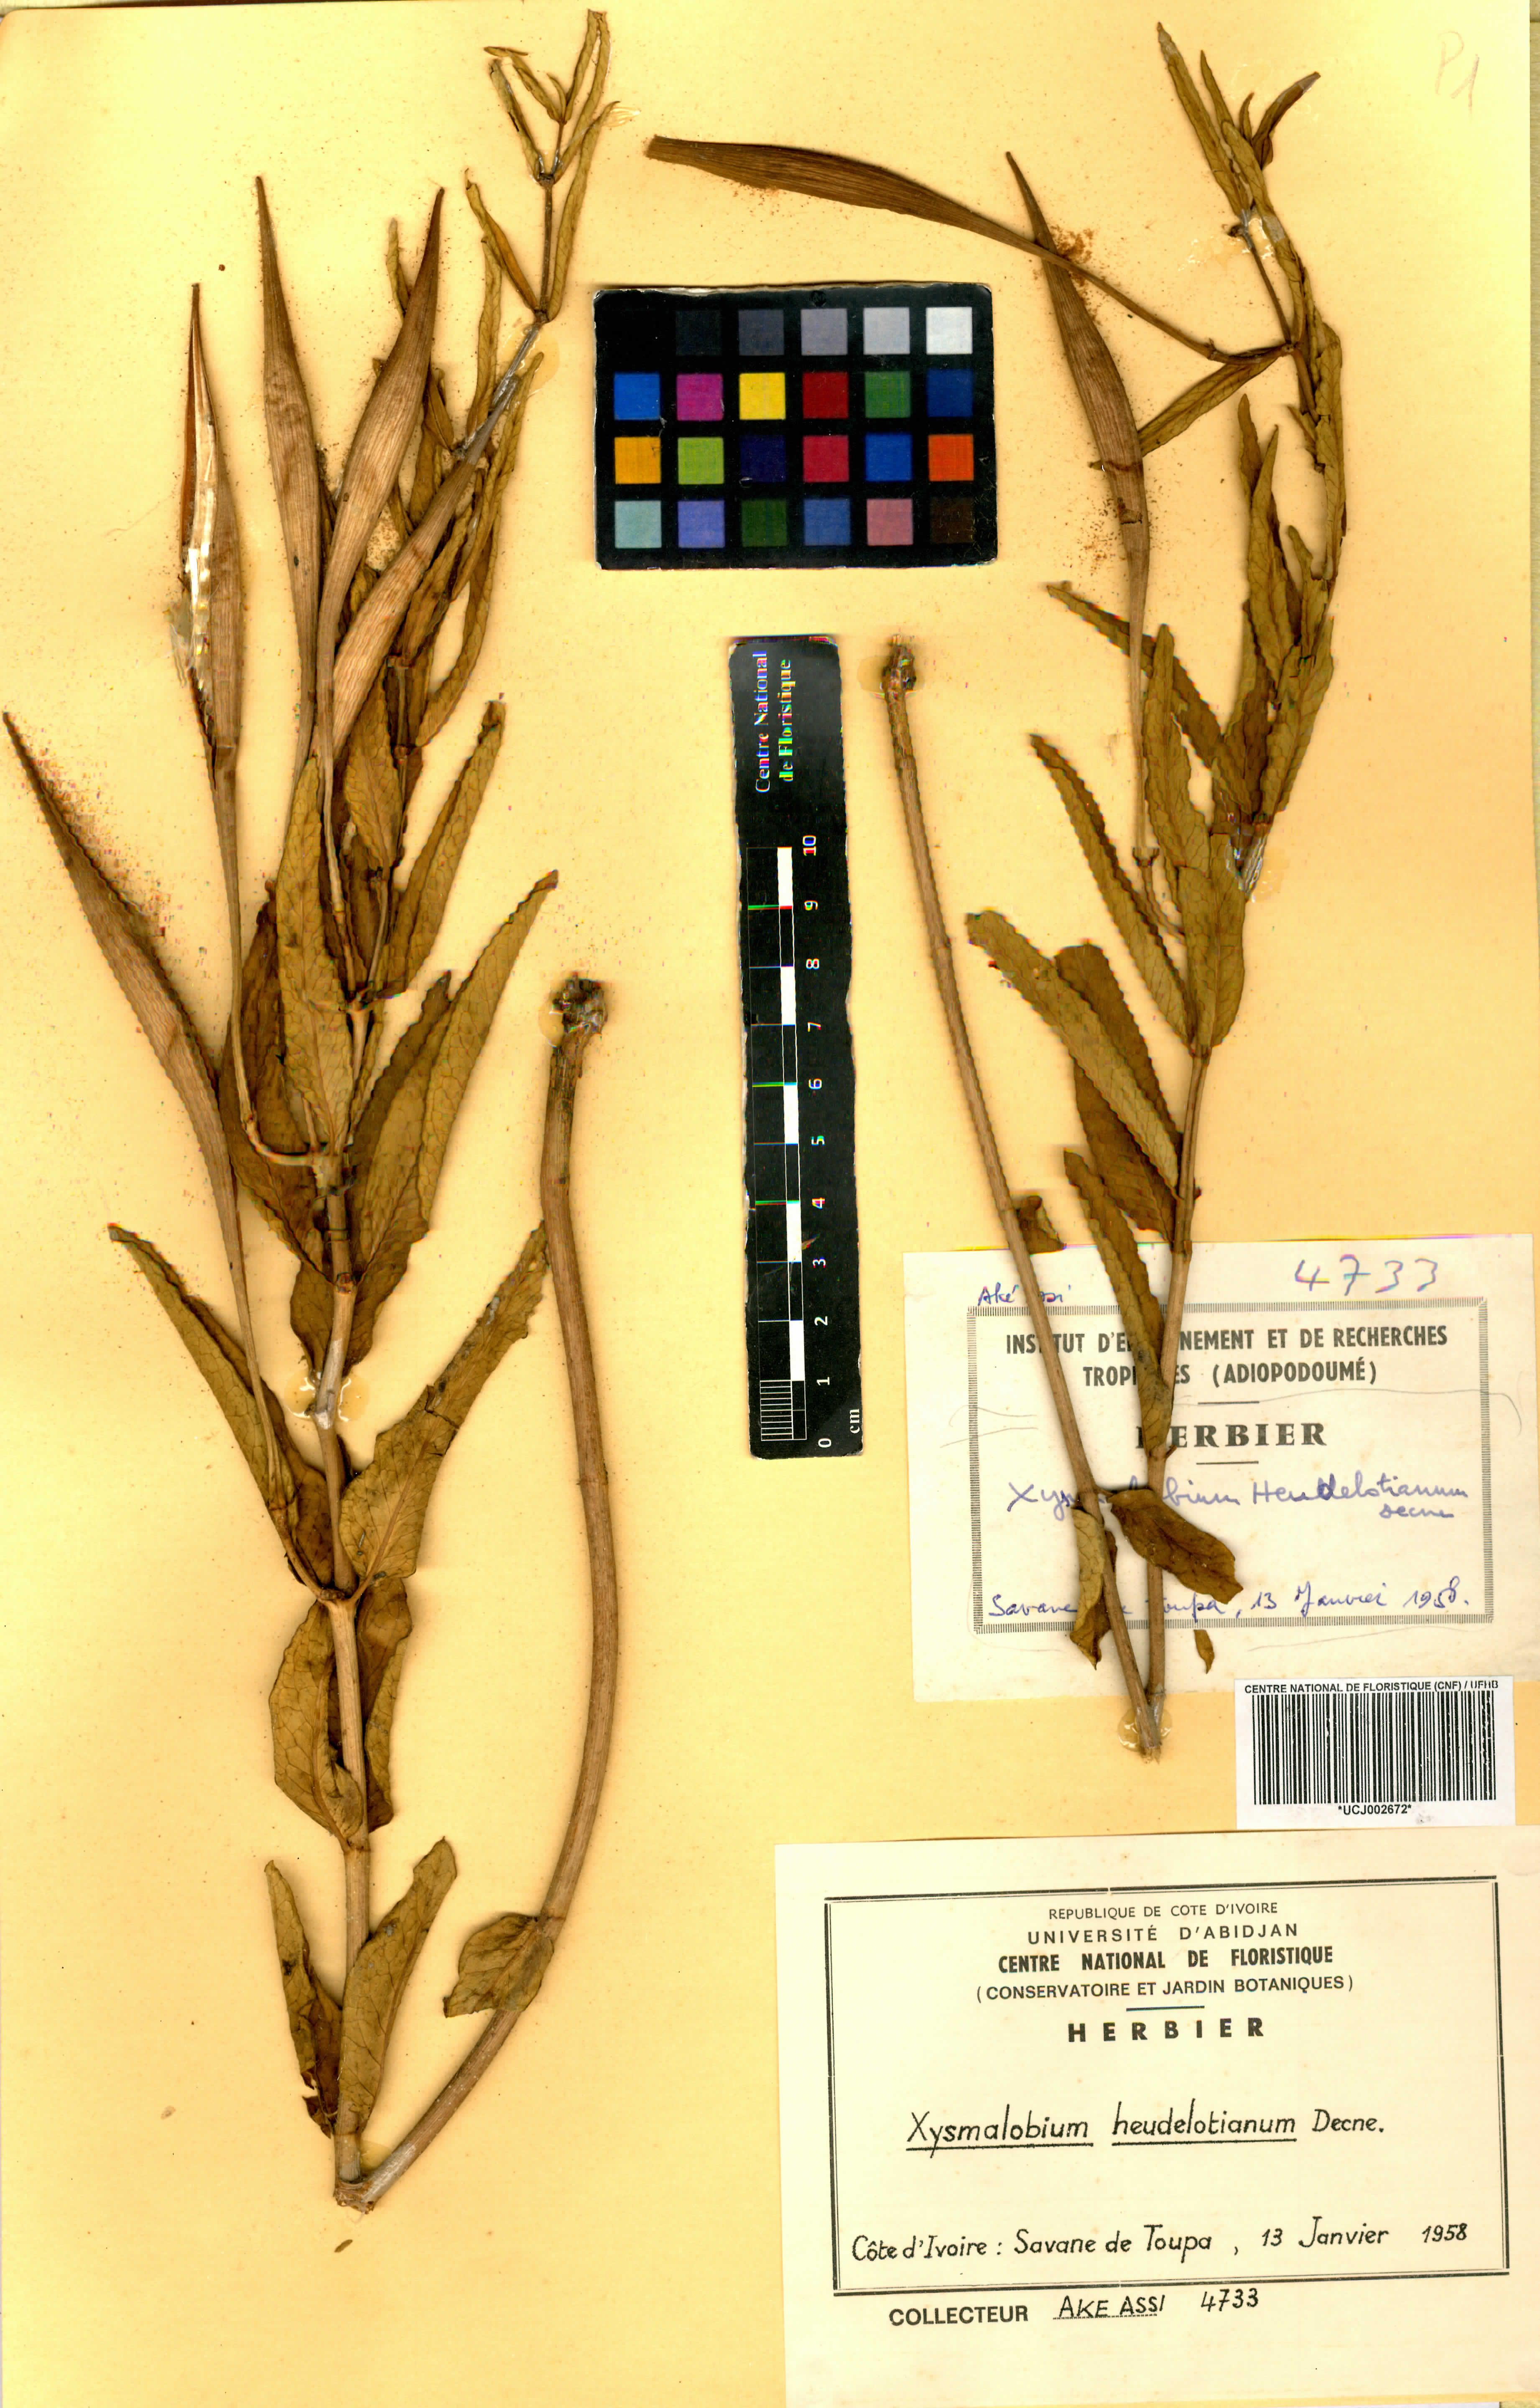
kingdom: Plantae
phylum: Tracheophyta
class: Magnoliopsida
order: Gentianales
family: Apocynaceae
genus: Xysmalobium
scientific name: Xysmalobium heudelotianum
